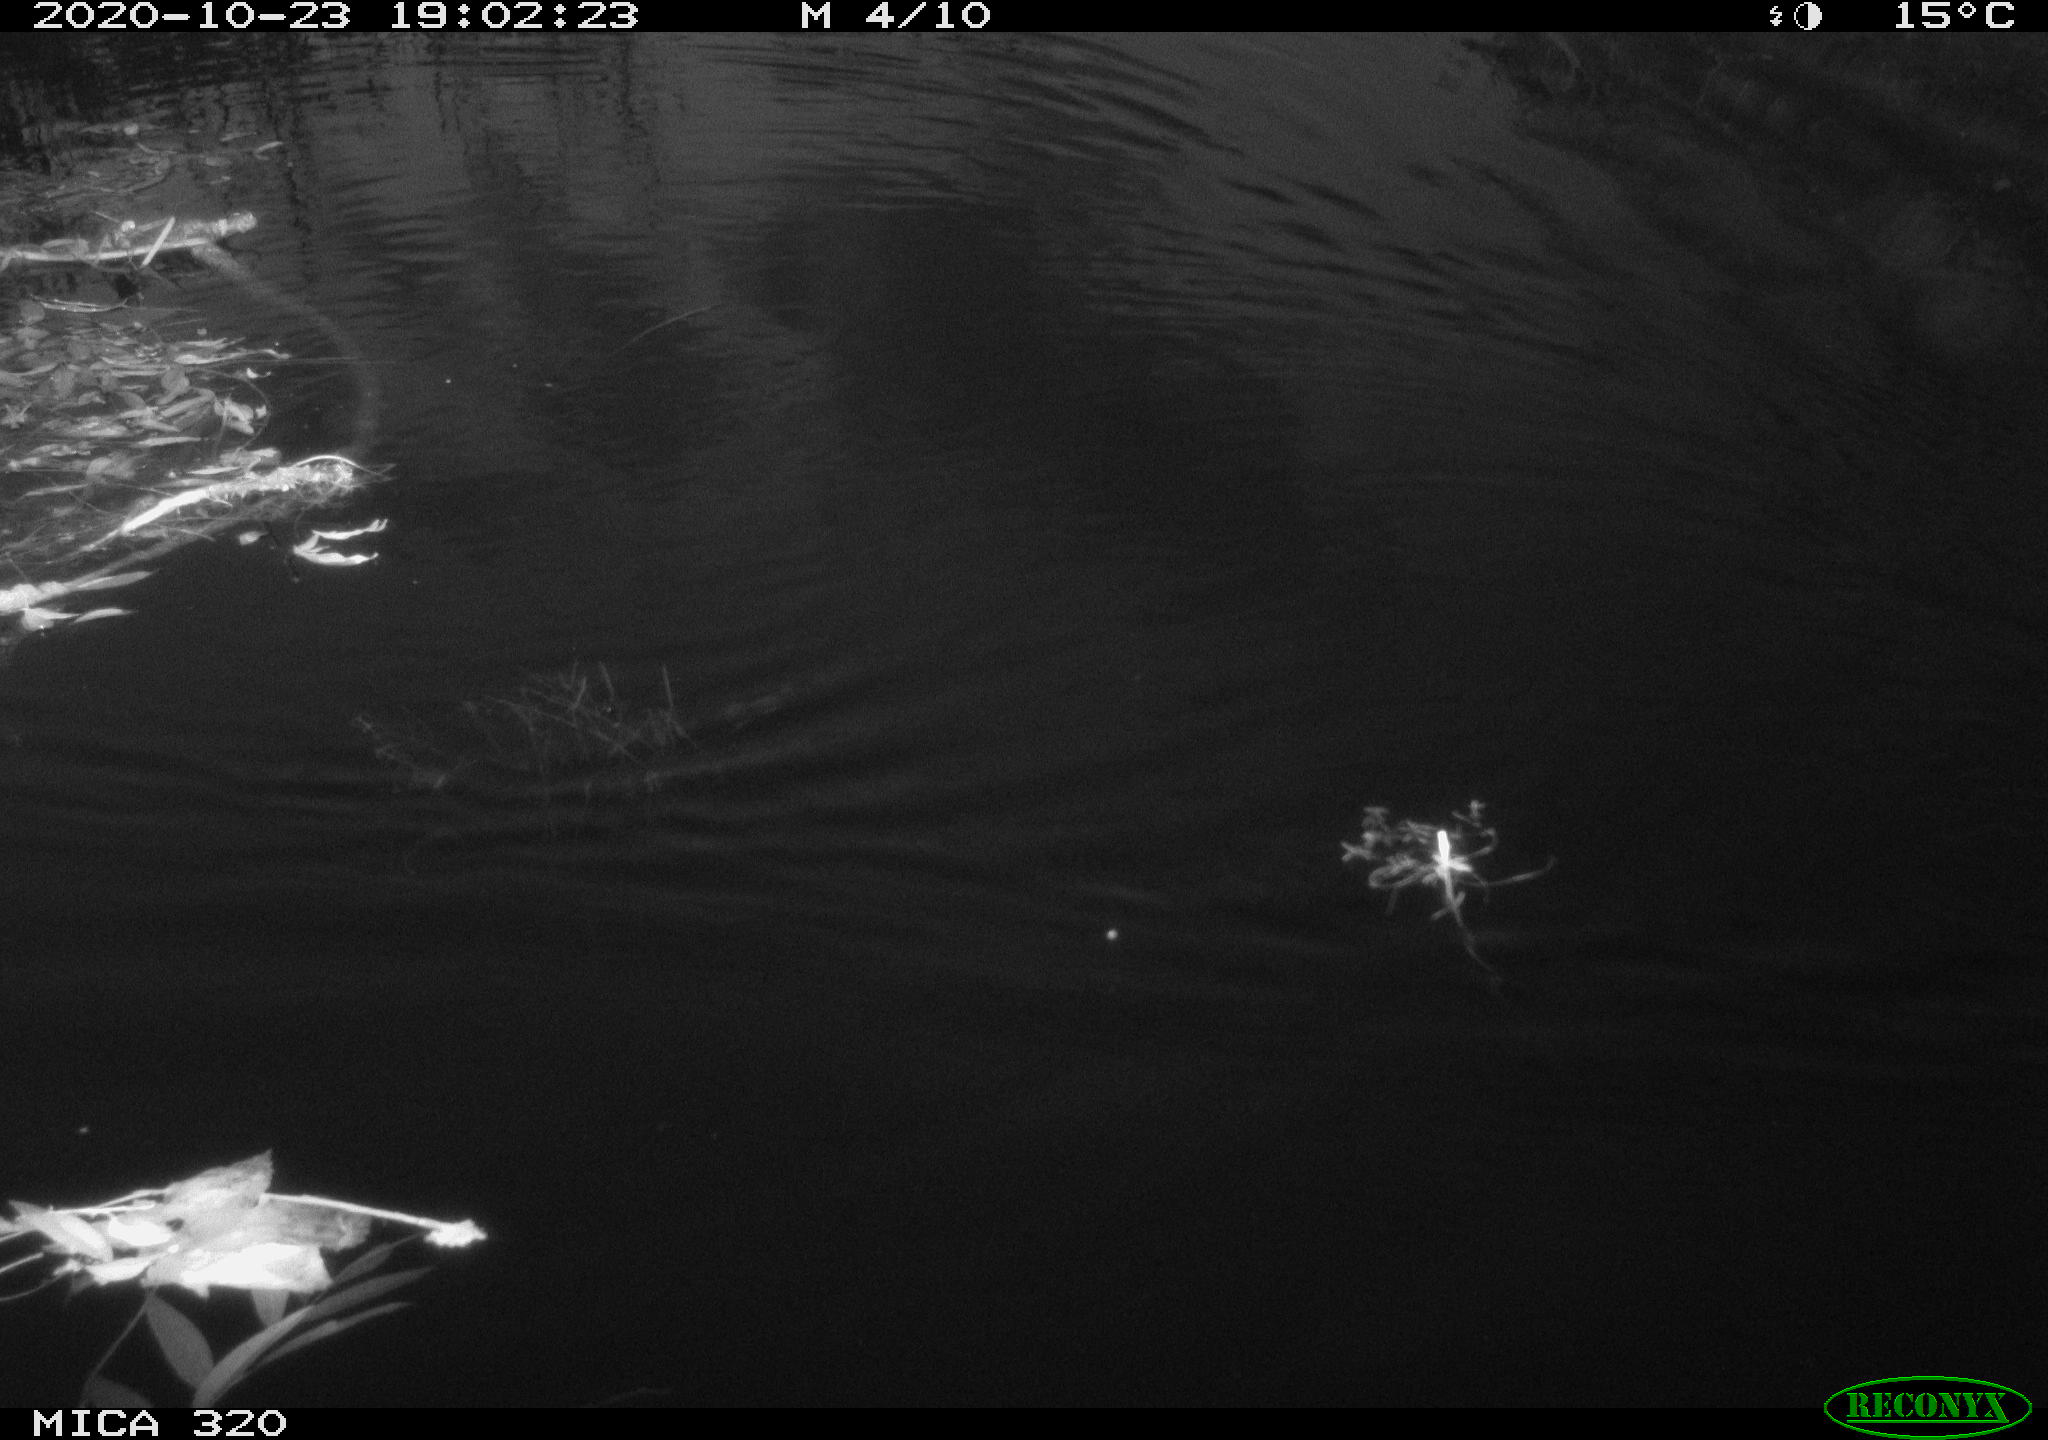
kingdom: Animalia
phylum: Chordata
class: Aves
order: Gruiformes
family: Rallidae
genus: Gallinula
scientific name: Gallinula chloropus
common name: Common moorhen
